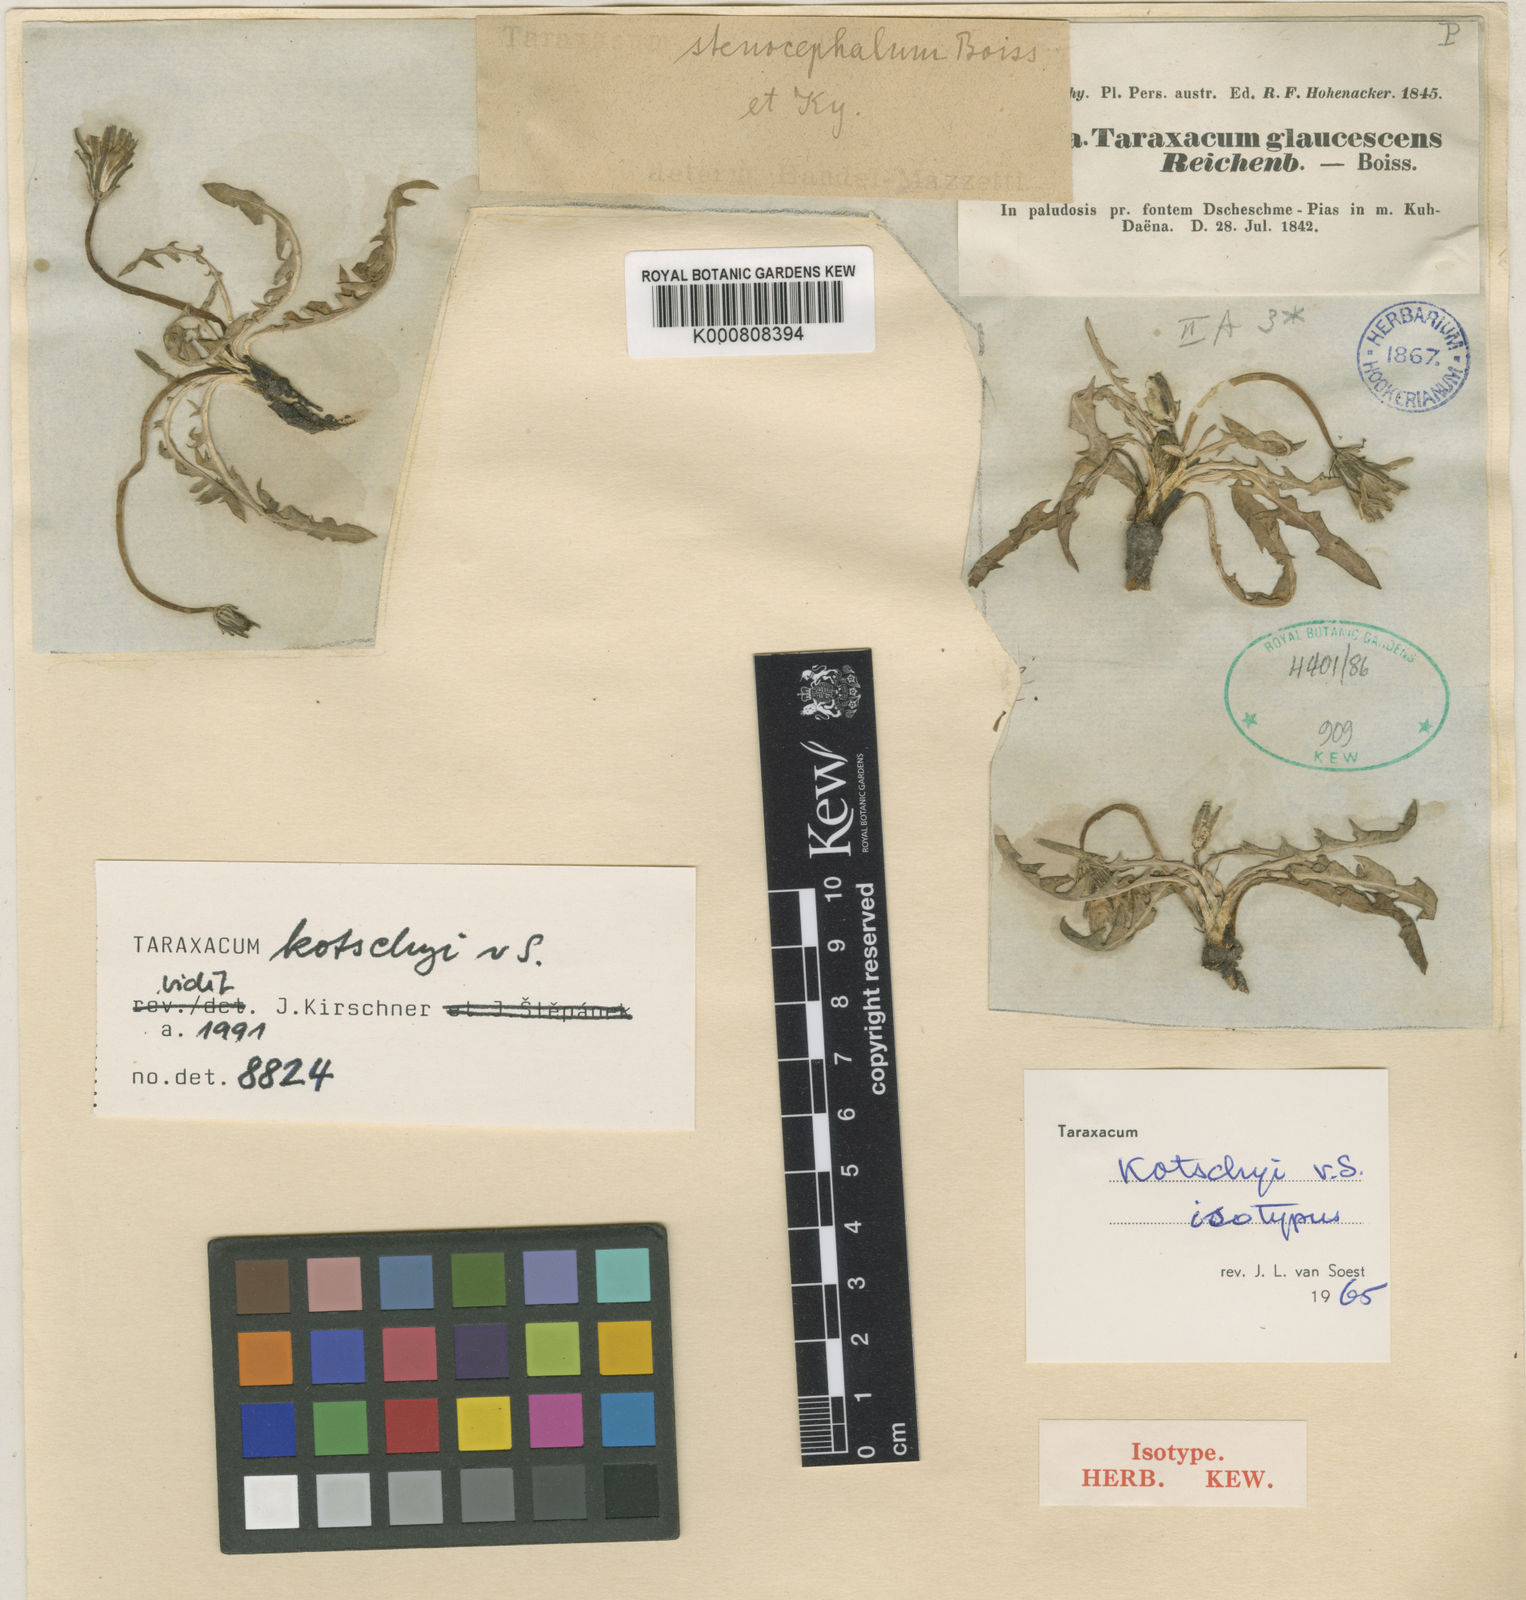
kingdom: Plantae
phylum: Tracheophyta
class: Magnoliopsida
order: Asterales
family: Asteraceae
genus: Taraxacum
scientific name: Taraxacum microcephaloides
